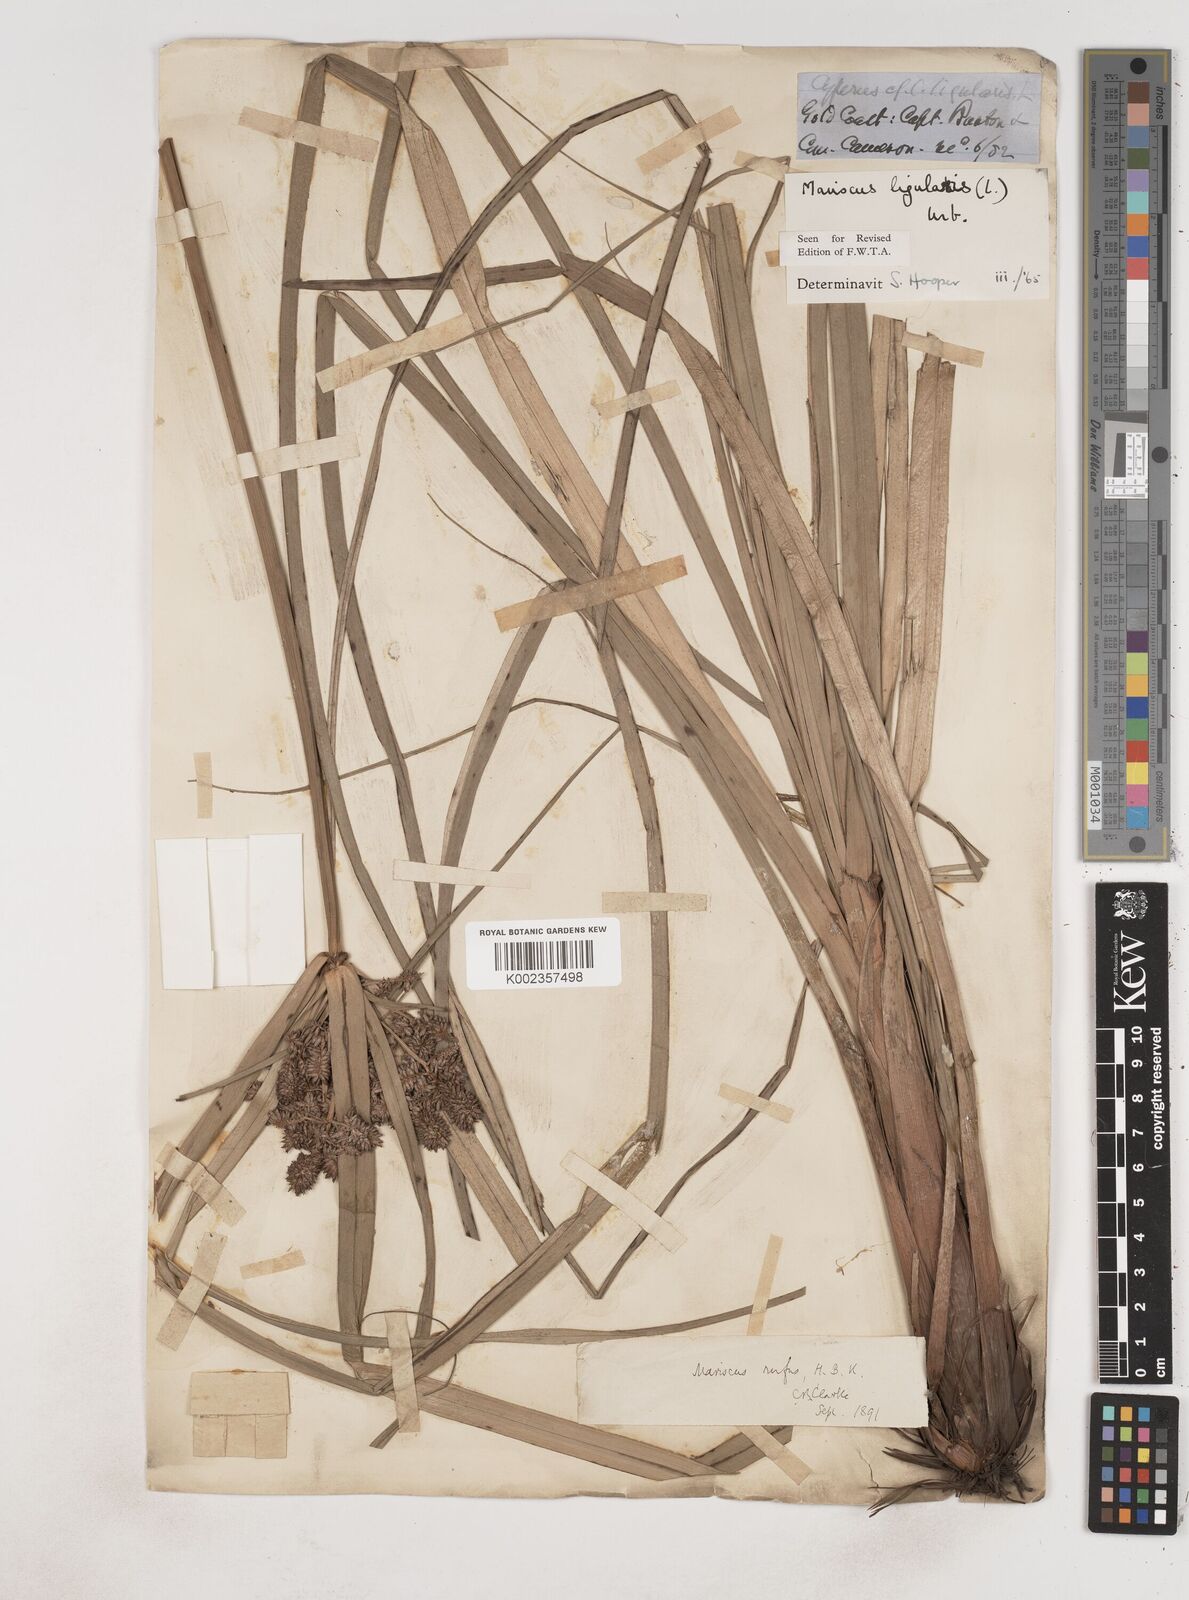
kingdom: Plantae
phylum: Tracheophyta
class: Liliopsida
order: Poales
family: Cyperaceae
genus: Cyperus
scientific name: Cyperus ligularis
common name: Swamp flat sedge
